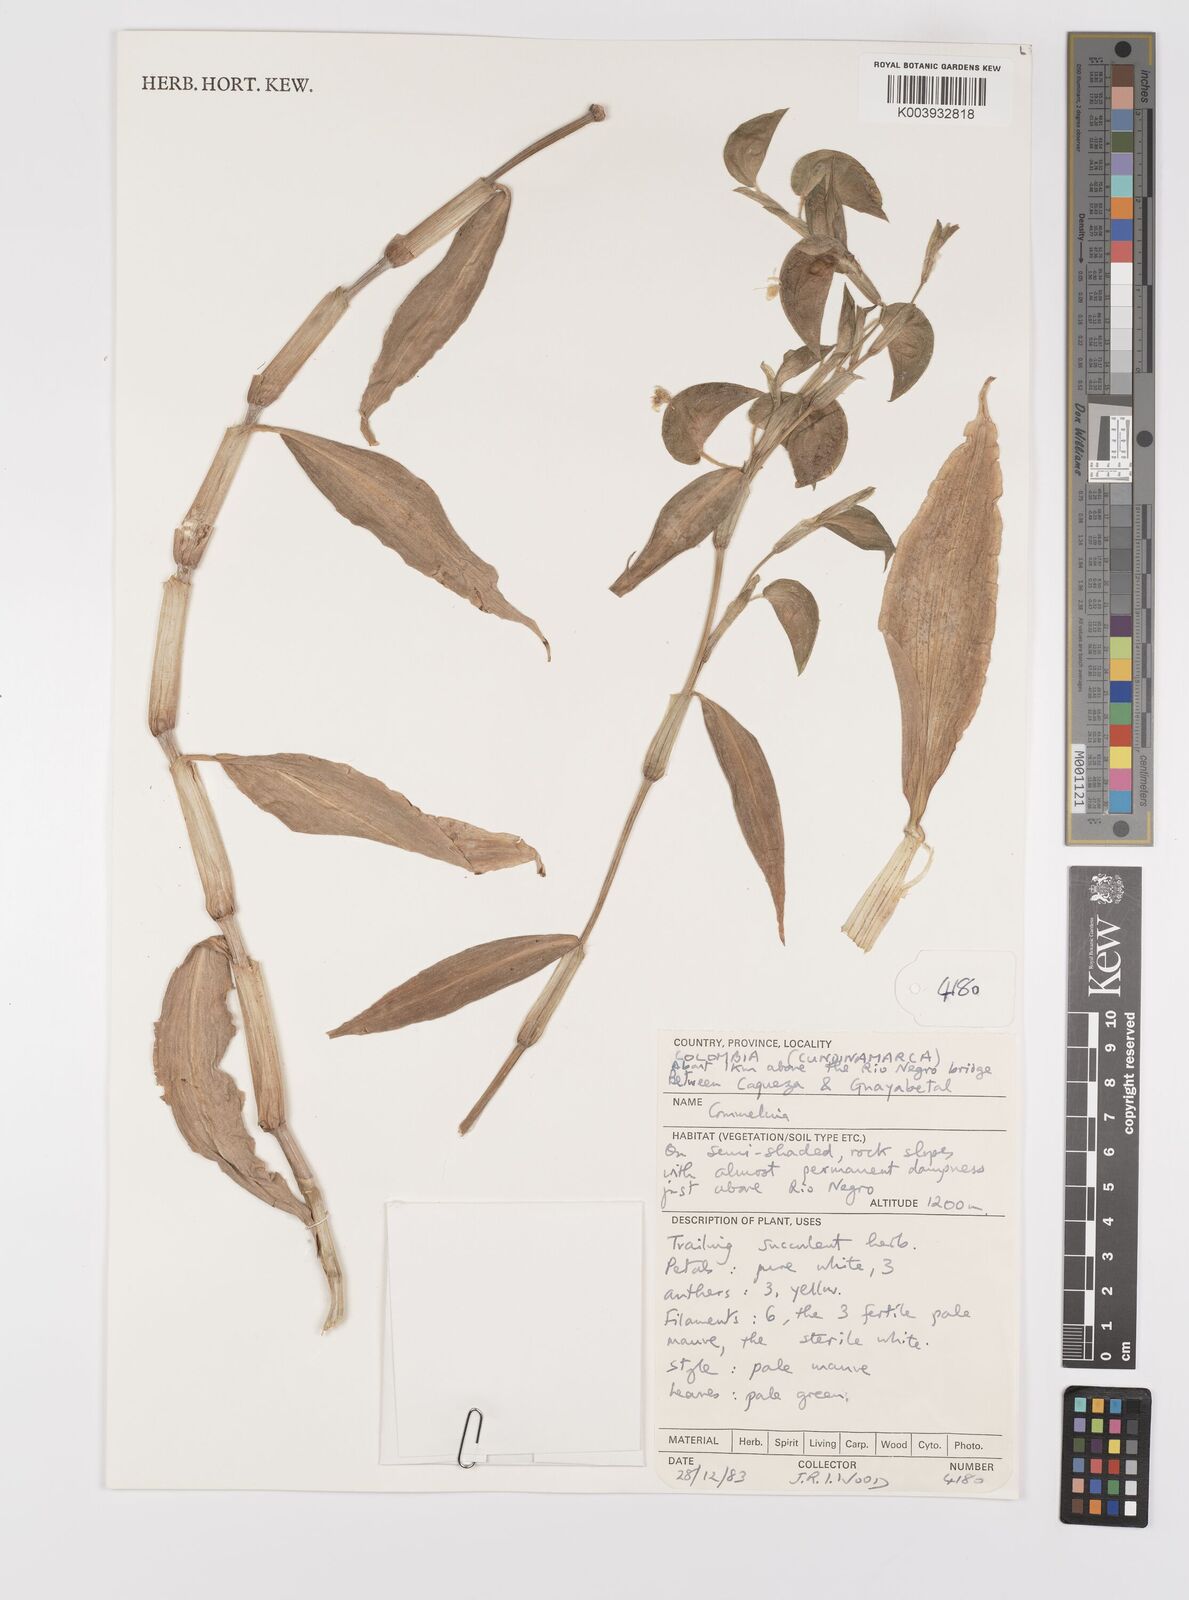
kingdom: Plantae
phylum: Tracheophyta
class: Liliopsida
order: Commelinales
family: Commelinaceae
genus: Commelina
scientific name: Commelina
